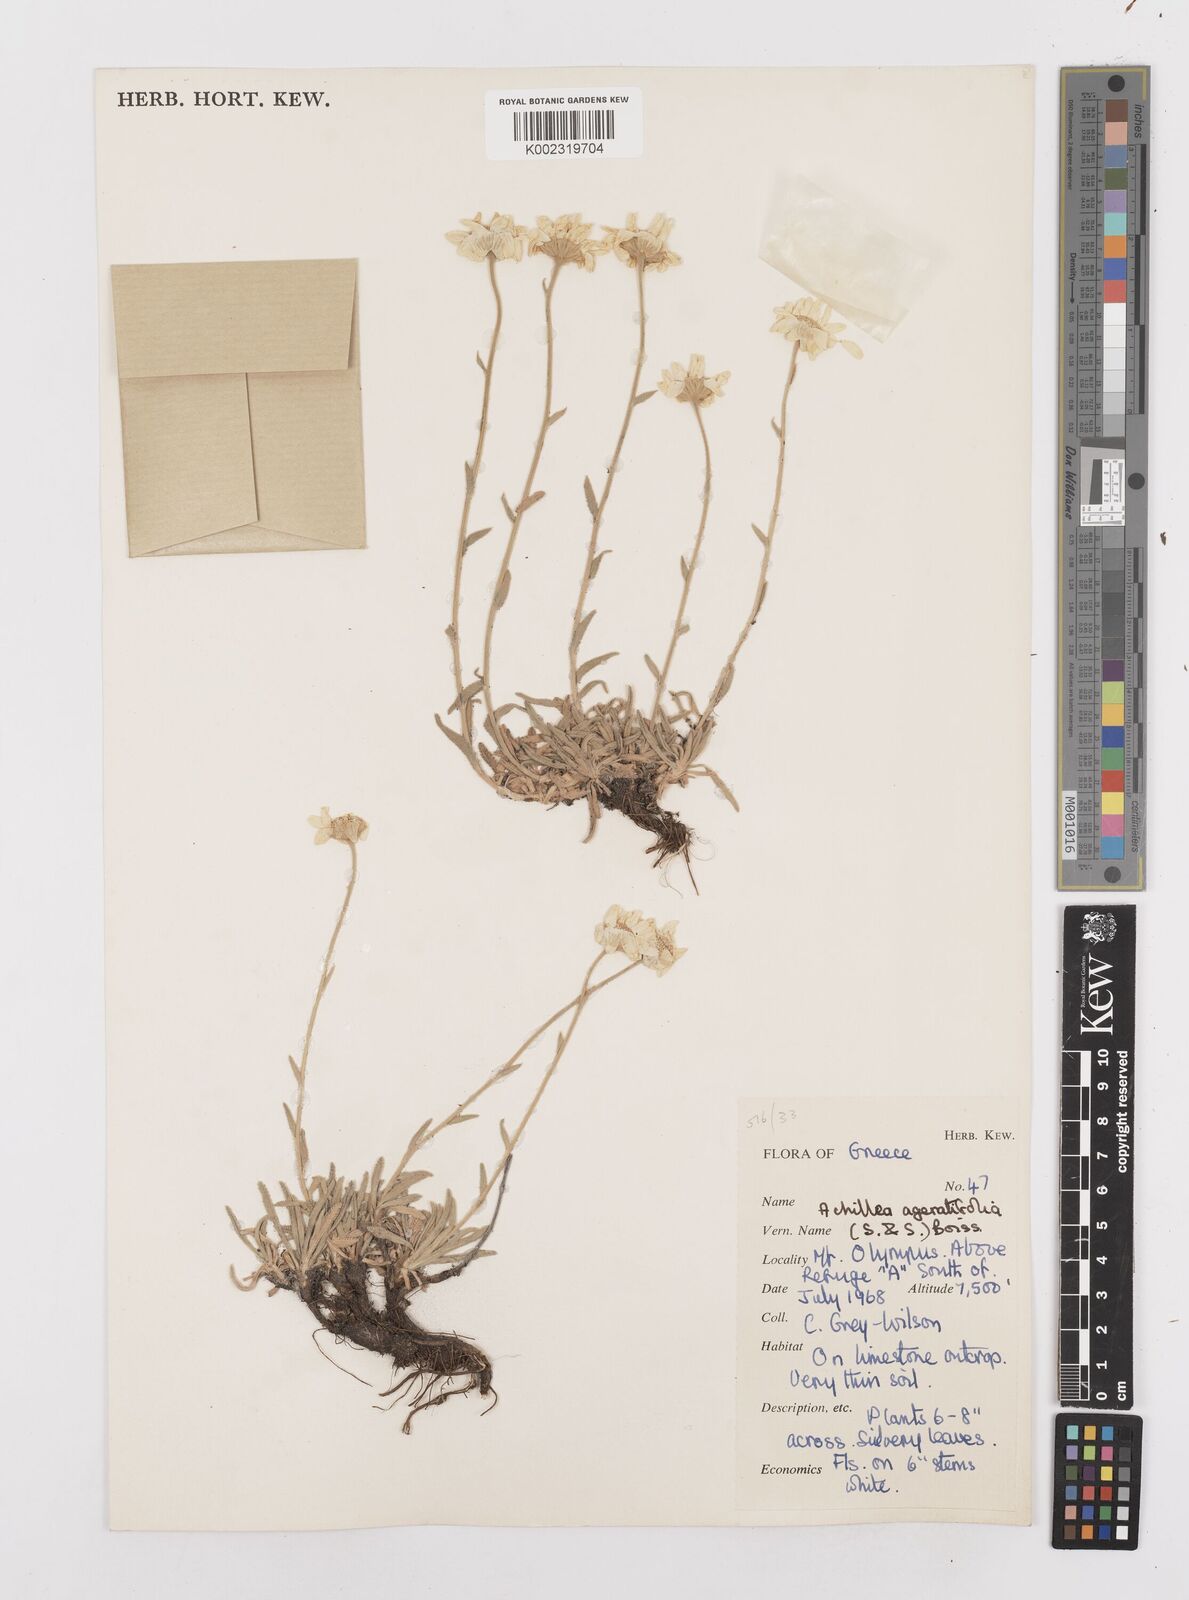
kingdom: Plantae
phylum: Tracheophyta
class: Magnoliopsida
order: Asterales
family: Asteraceae
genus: Achillea
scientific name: Achillea ageratifolia
